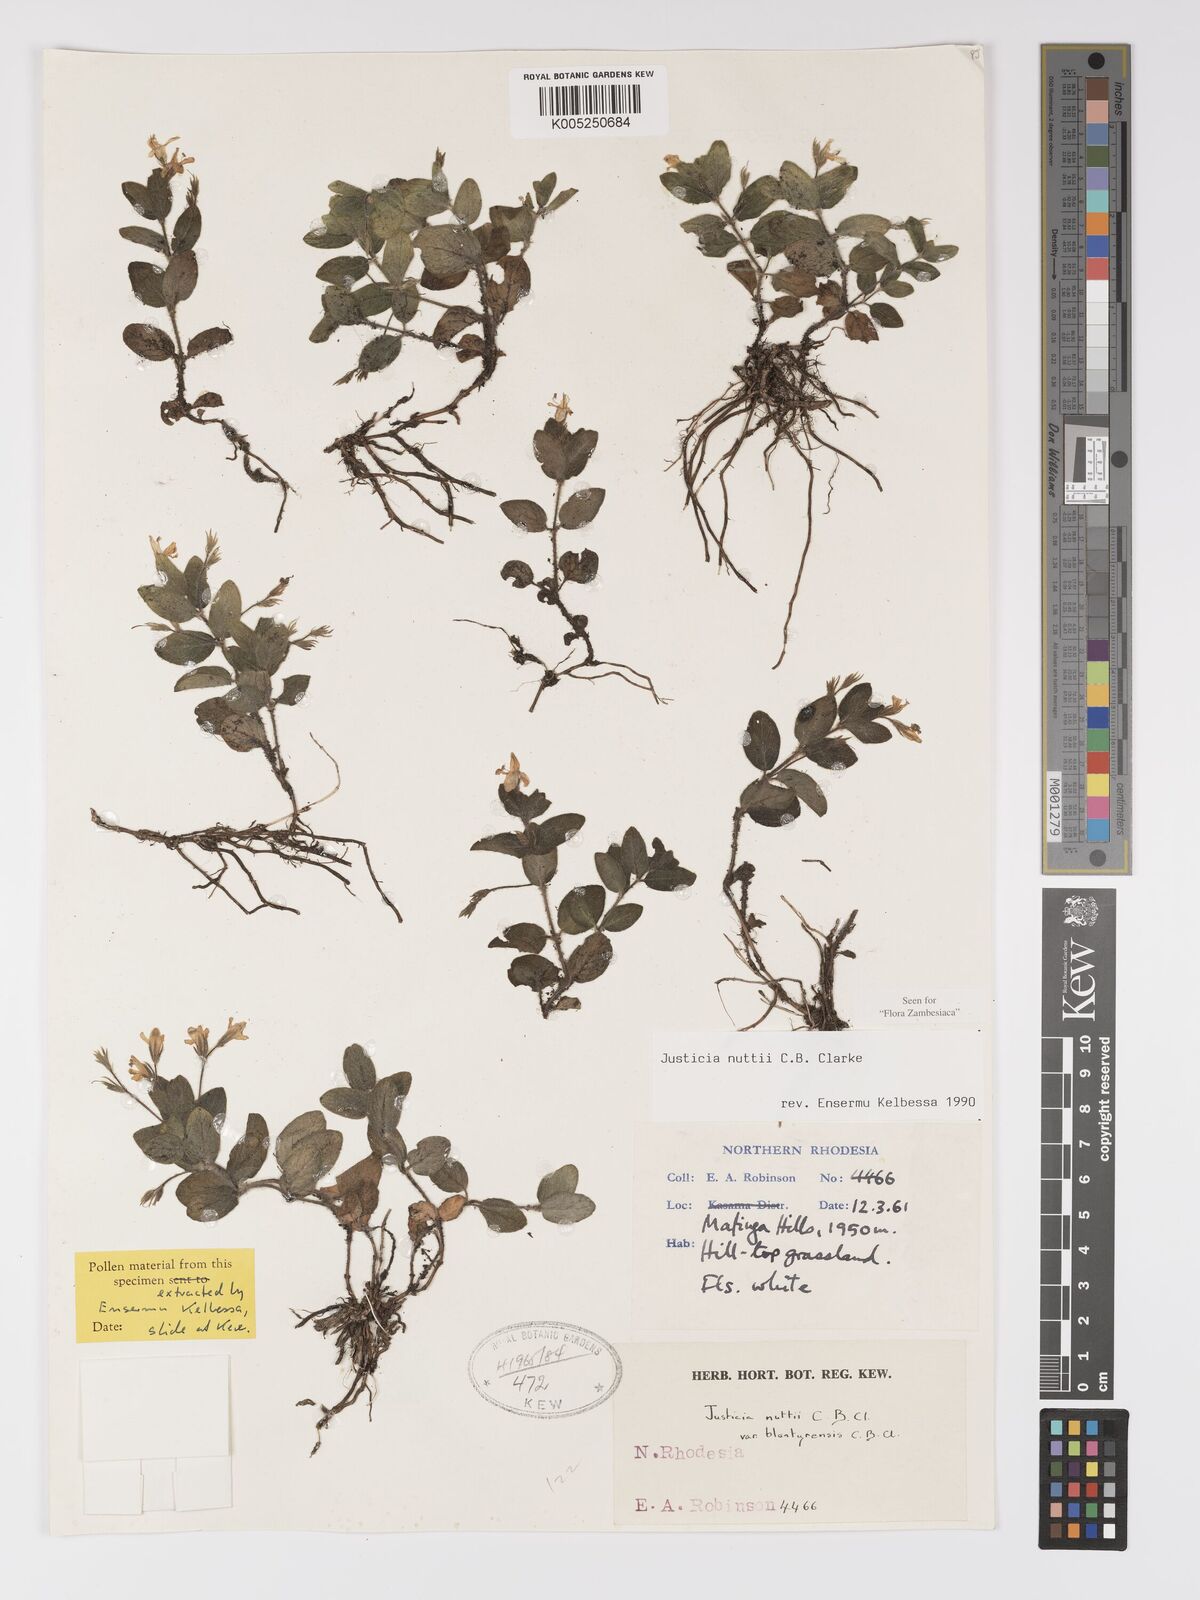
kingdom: Plantae
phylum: Tracheophyta
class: Magnoliopsida
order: Lamiales
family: Acanthaceae
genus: Justicia
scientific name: Justicia nuttii
